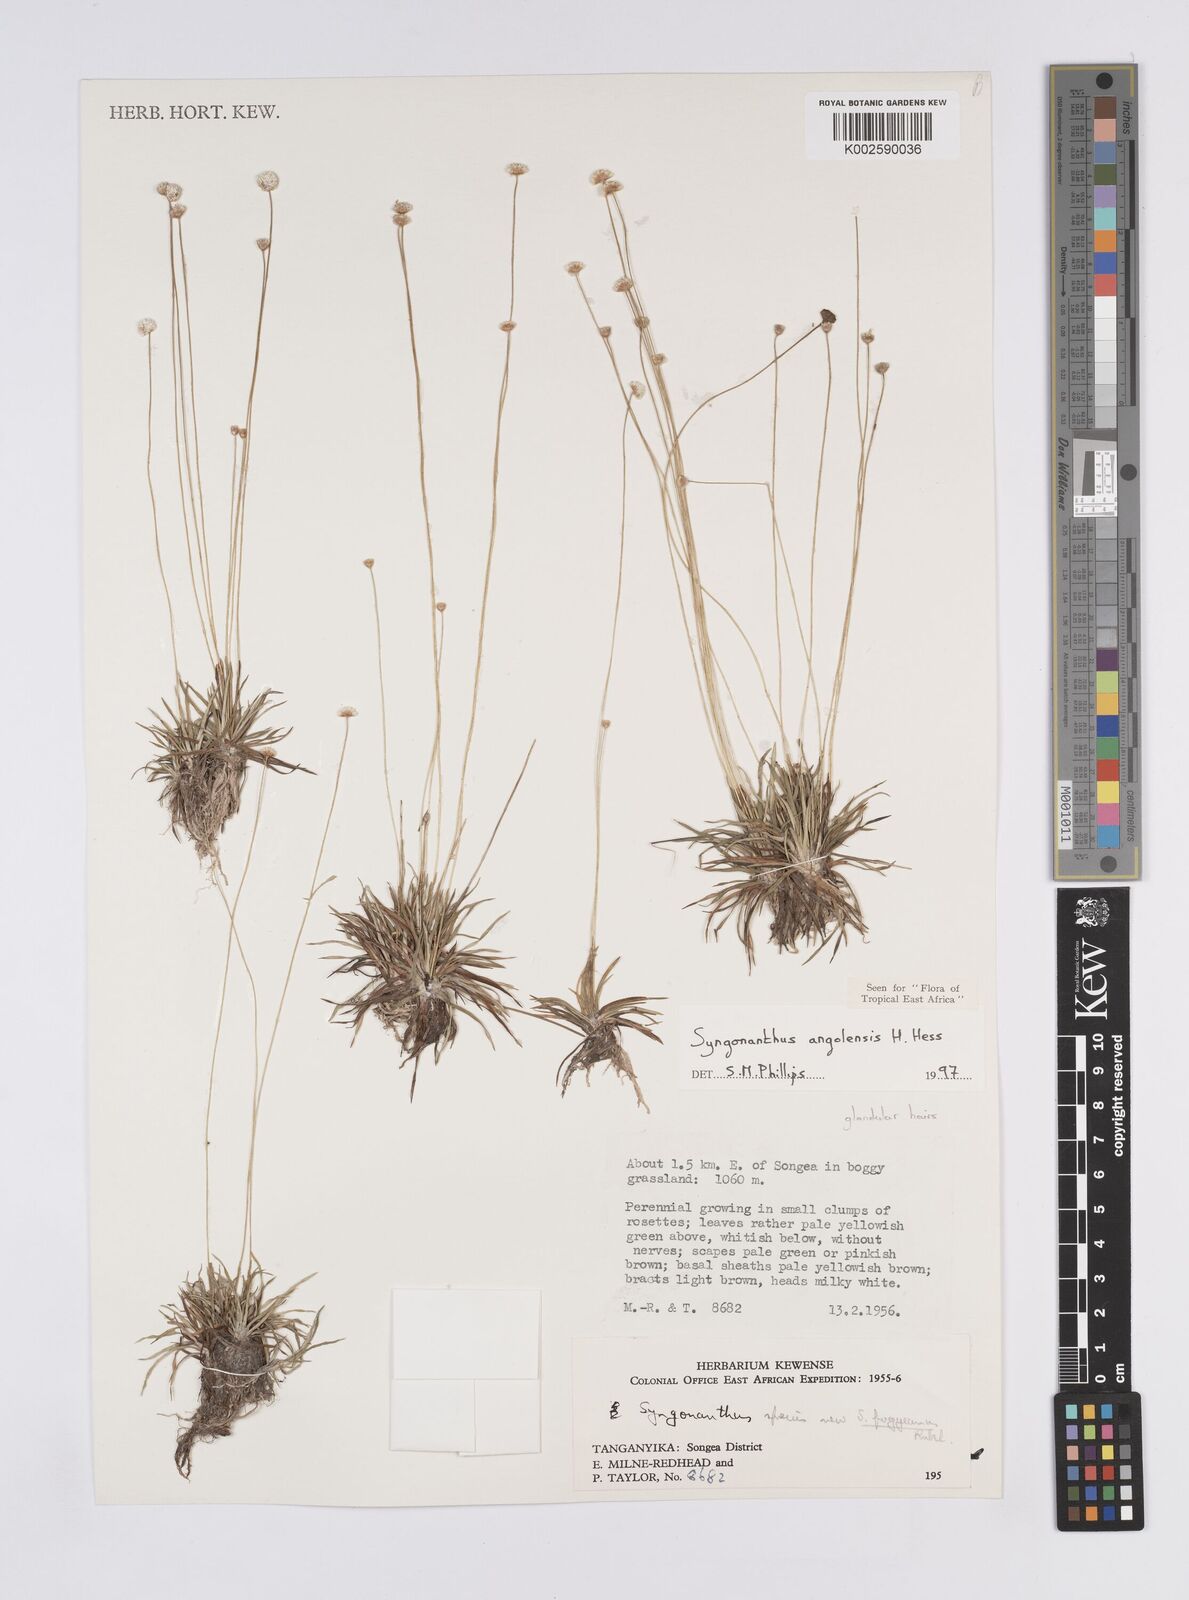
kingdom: Plantae
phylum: Tracheophyta
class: Liliopsida
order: Poales
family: Eriocaulaceae
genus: Syngonanthus
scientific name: Syngonanthus angolensis
